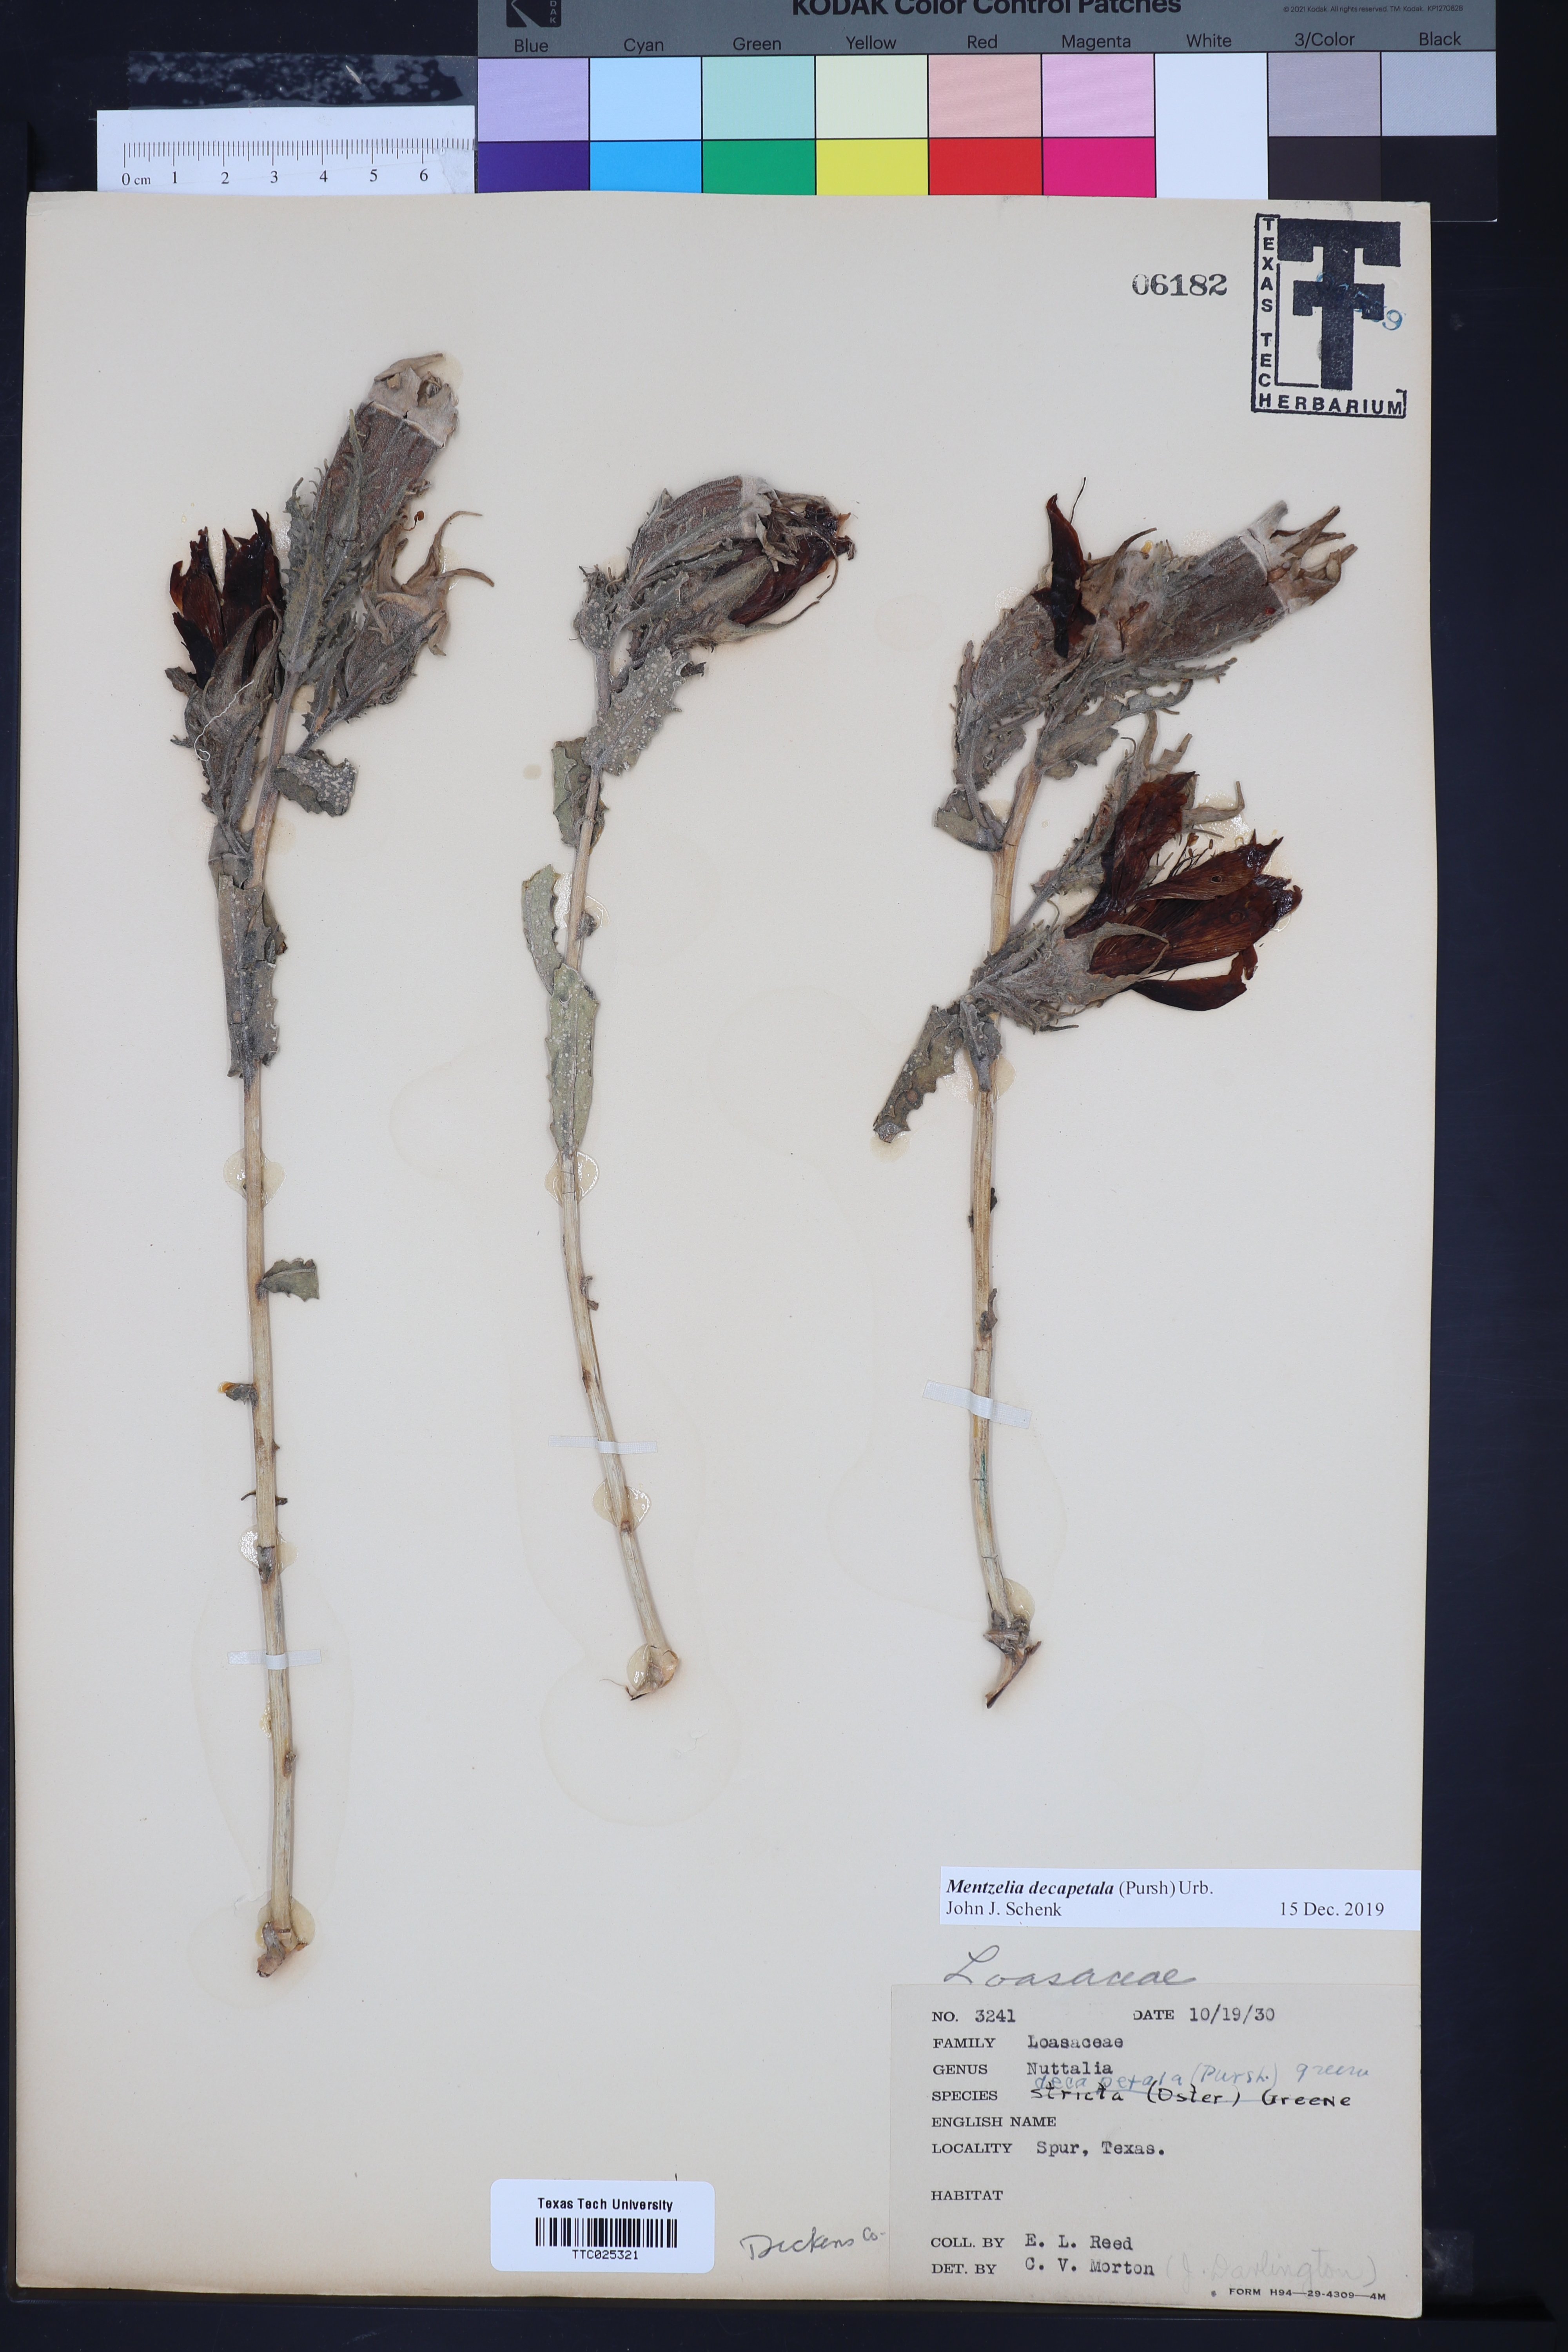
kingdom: Plantae
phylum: Tracheophyta
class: Magnoliopsida
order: Cornales
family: Loasaceae
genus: Mentzelia
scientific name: Mentzelia decapetala
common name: Gumbo-lily
